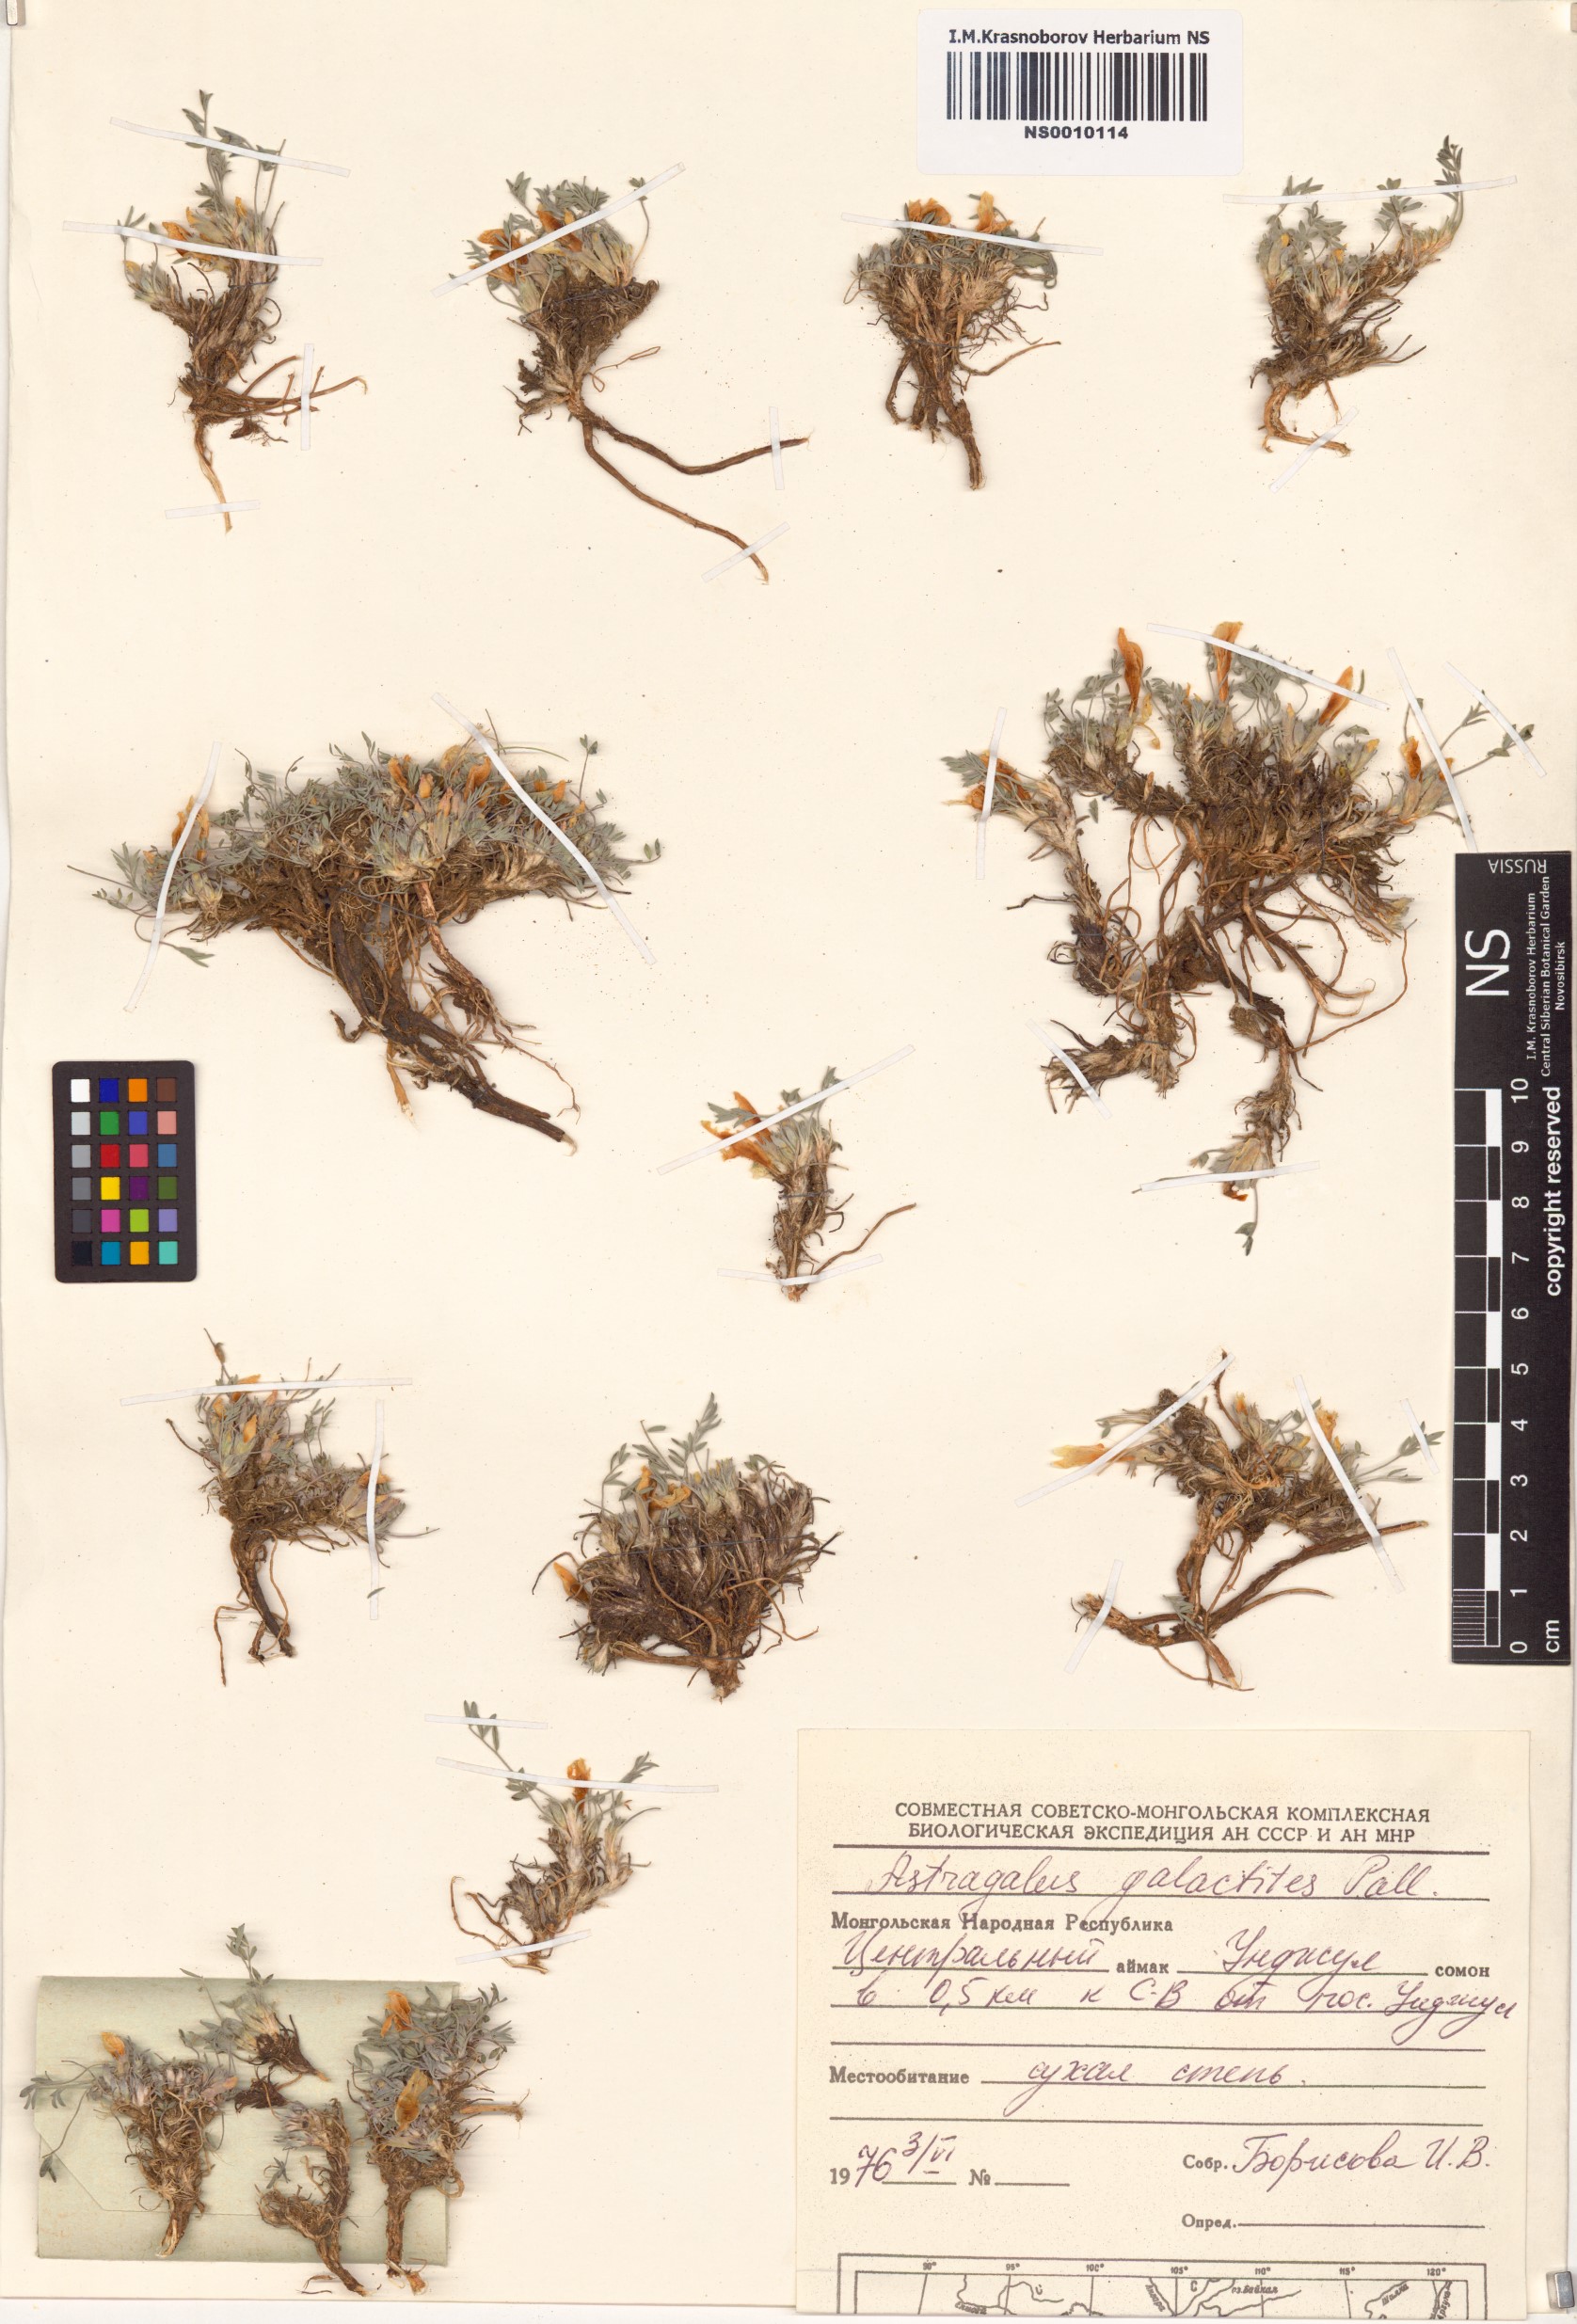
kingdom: Plantae
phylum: Tracheophyta
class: Magnoliopsida
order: Fabales
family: Fabaceae
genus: Astragalus
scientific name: Astragalus galactites
